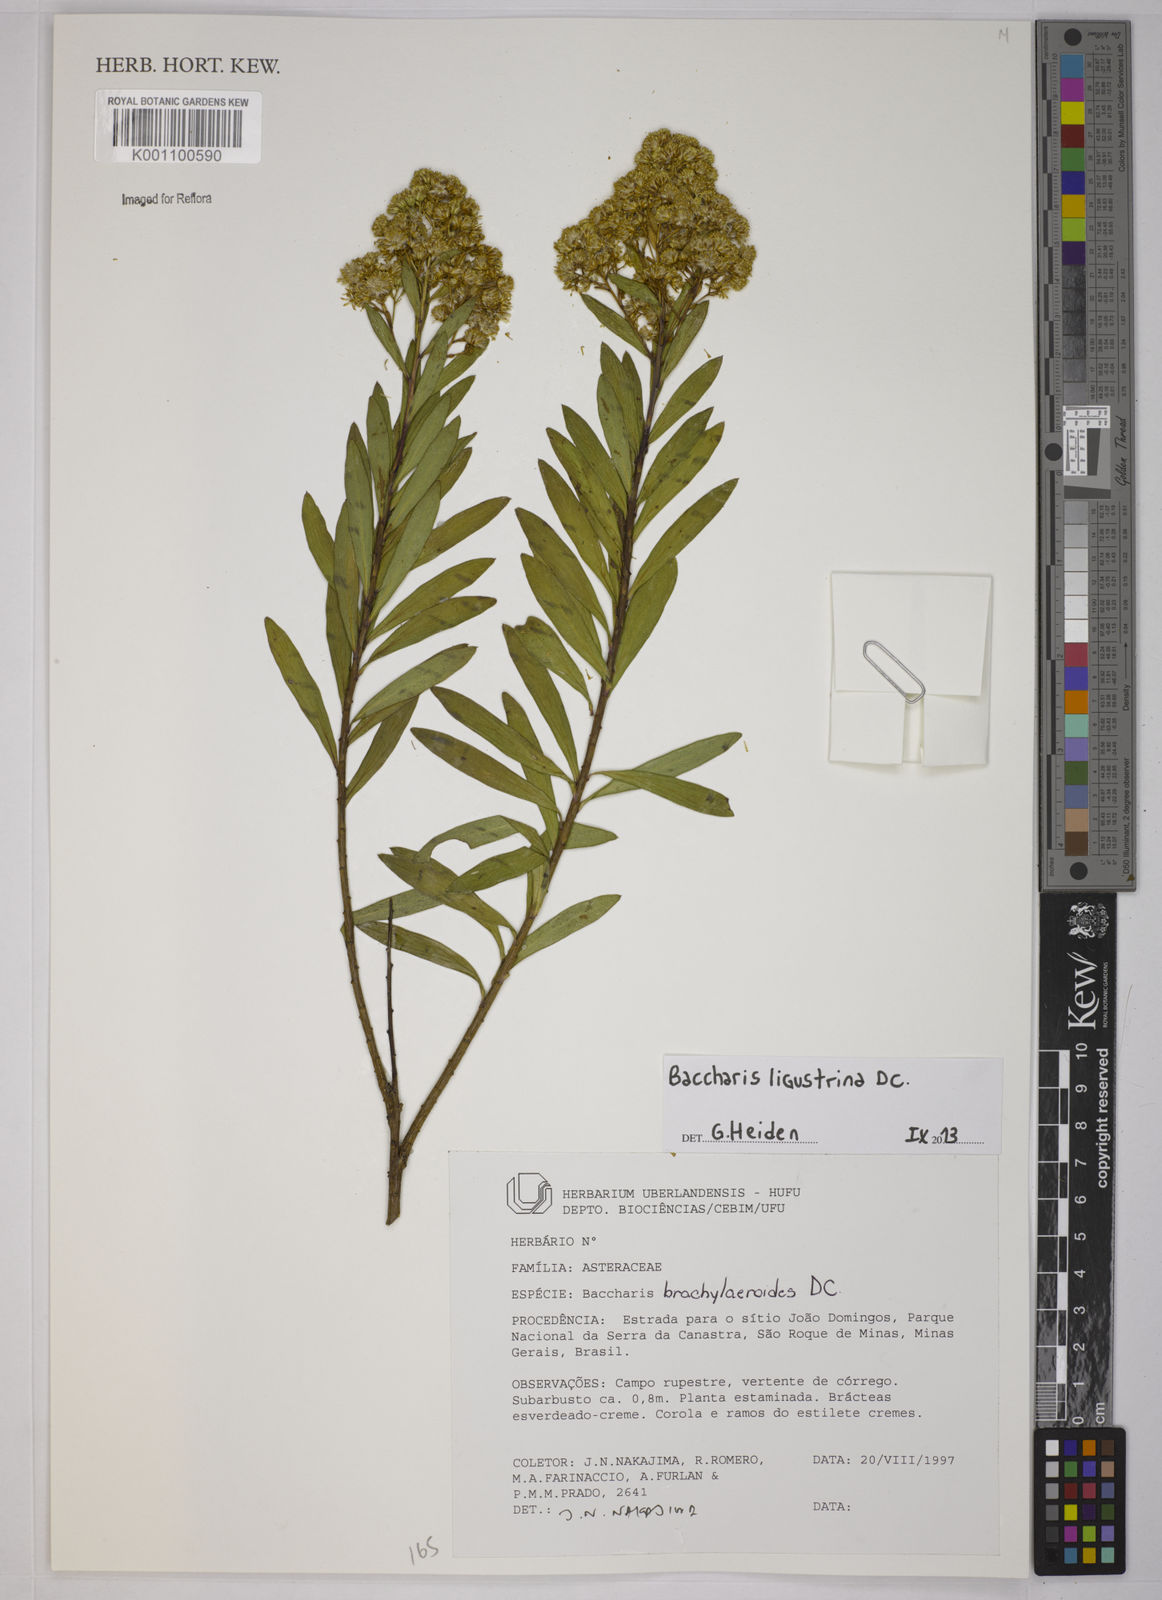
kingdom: Plantae
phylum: Tracheophyta
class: Magnoliopsida
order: Asterales
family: Asteraceae
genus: Baccharis
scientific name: Baccharis ligustrina
